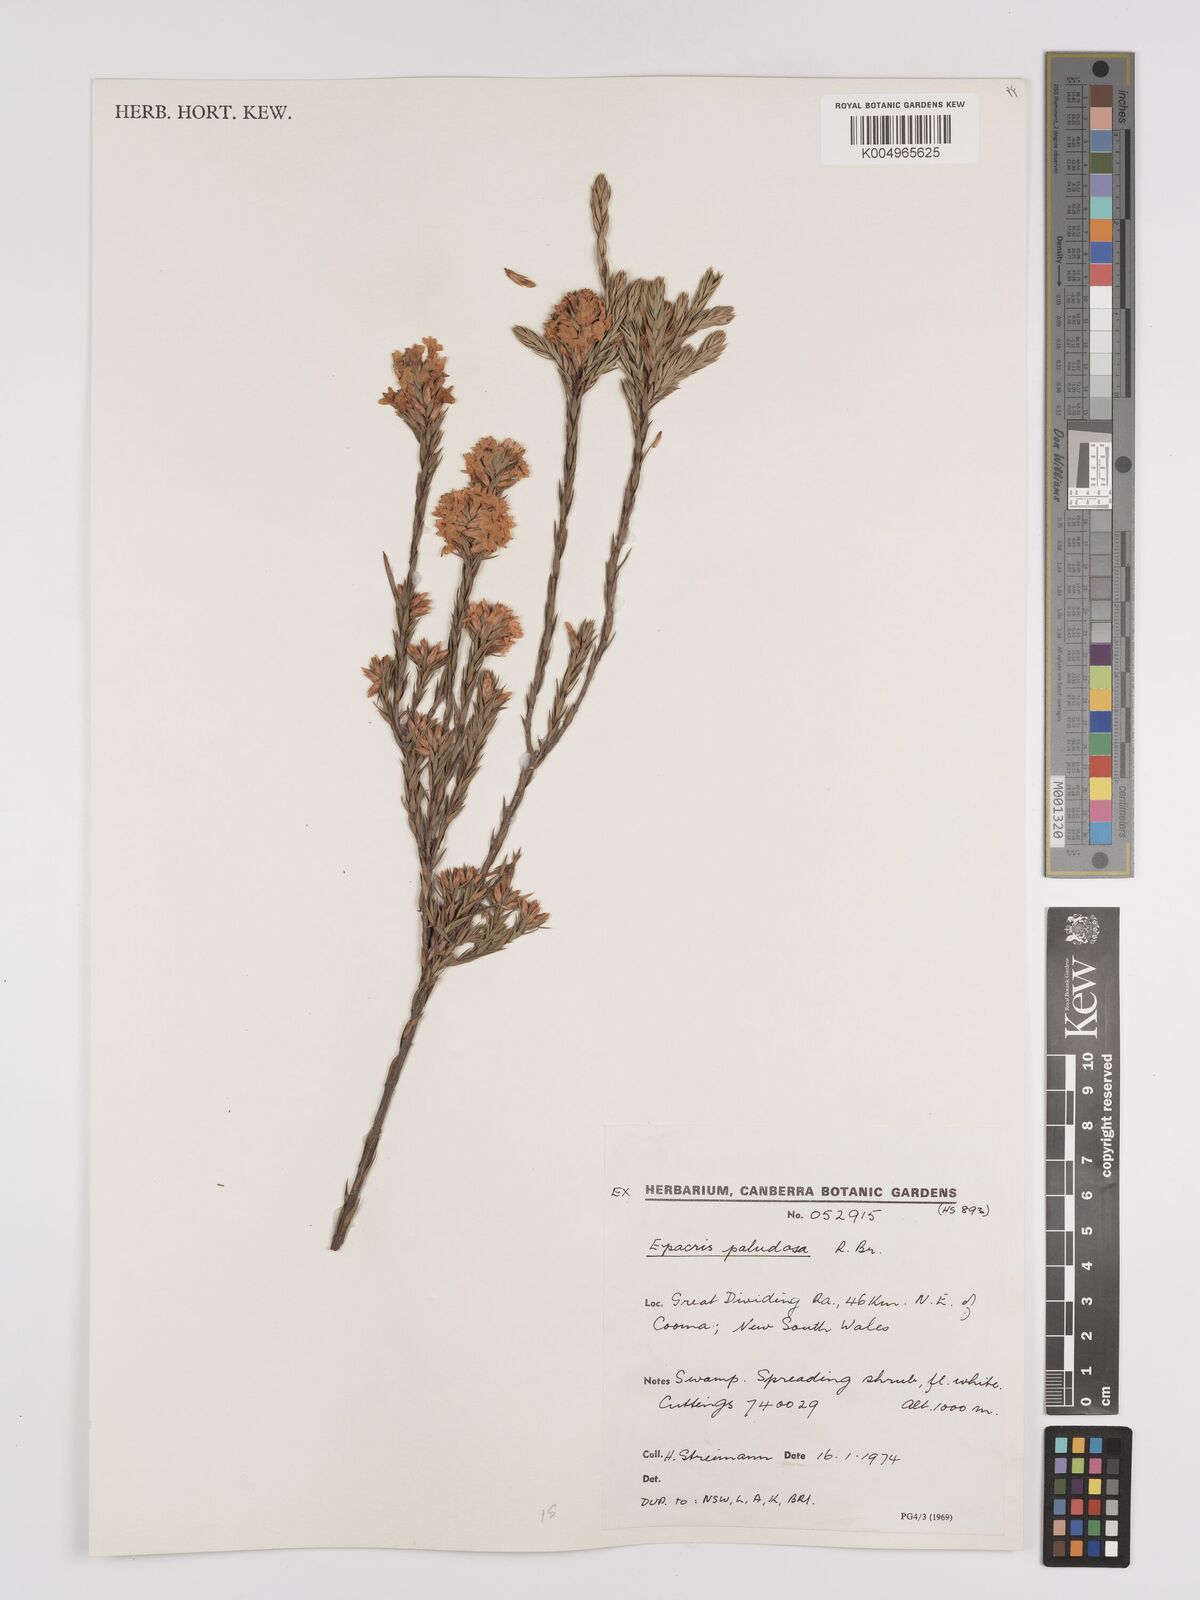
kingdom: Plantae
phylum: Tracheophyta
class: Magnoliopsida
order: Ericales
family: Ericaceae
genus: Epacris
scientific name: Epacris paludosa
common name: Swamp-heath
